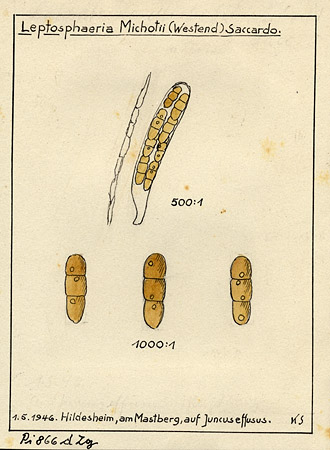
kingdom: Plantae
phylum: Tracheophyta
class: Liliopsida
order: Poales
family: Juncaceae
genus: Juncus
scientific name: Juncus effusus
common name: Soft rush
